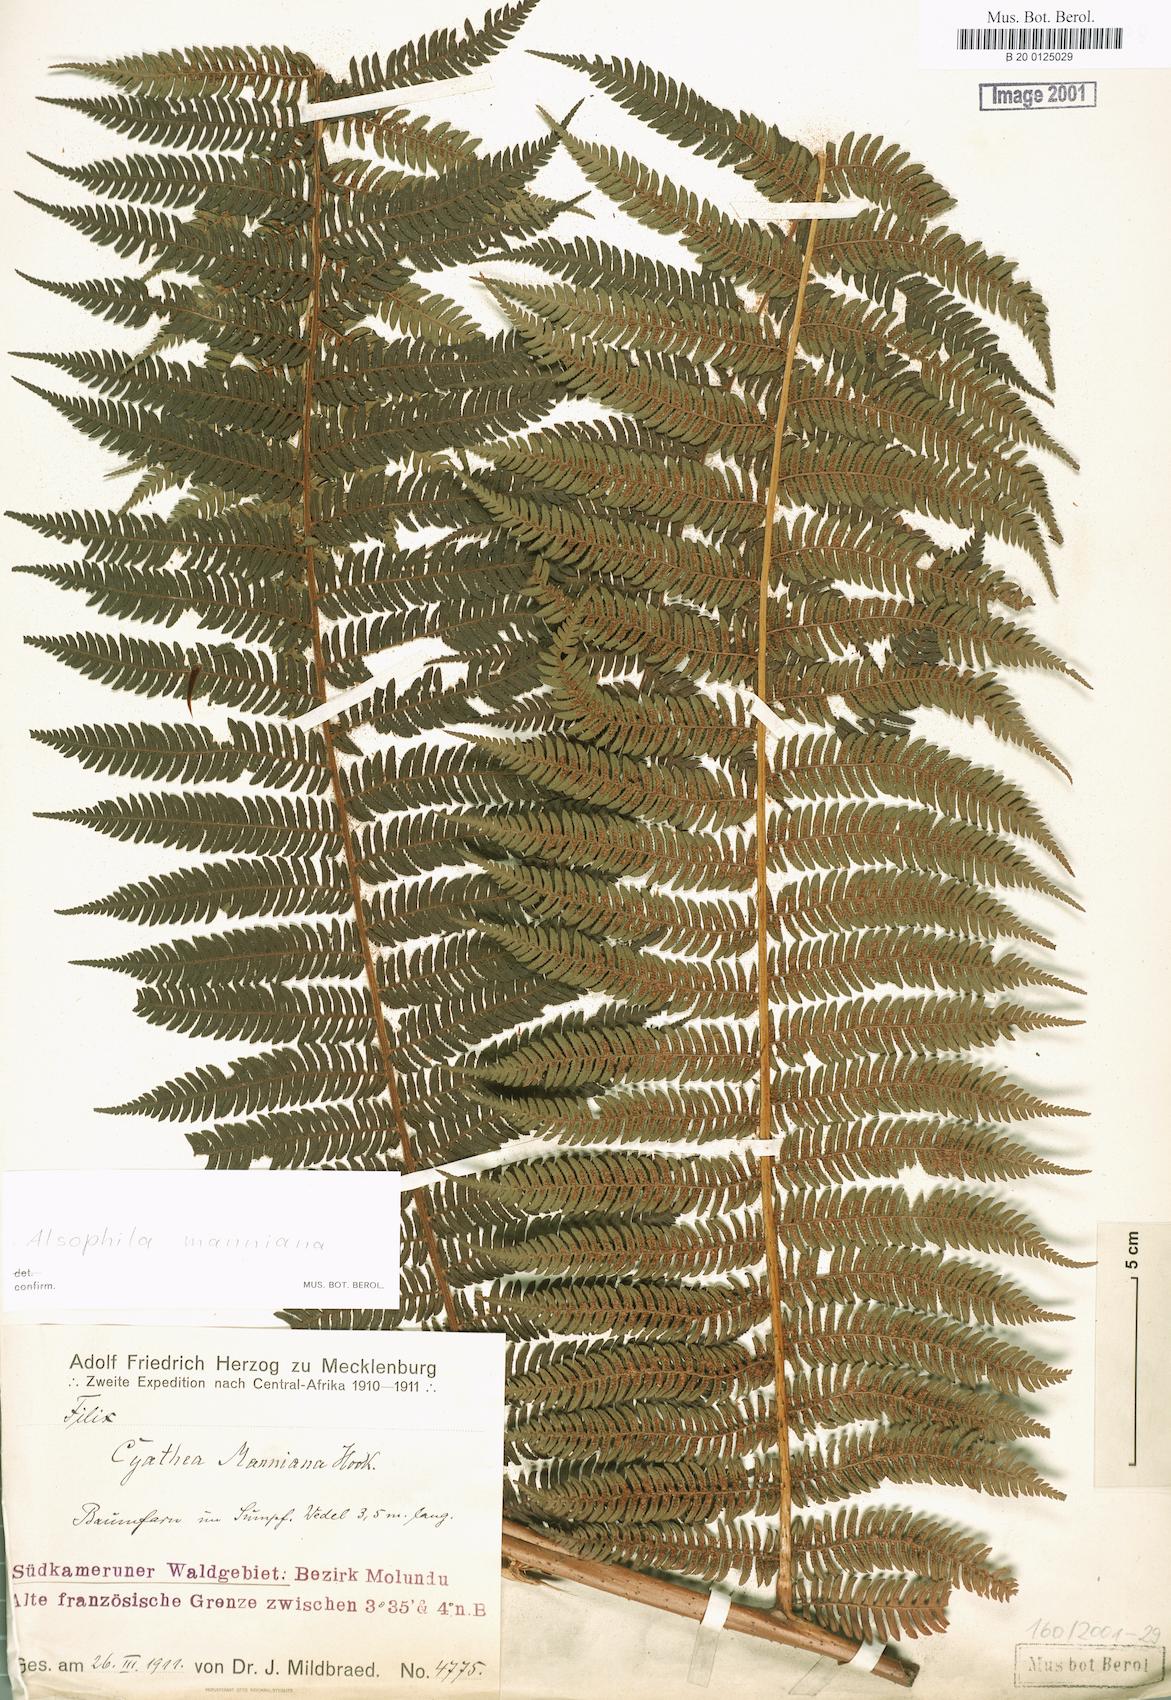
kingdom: Plantae
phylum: Tracheophyta
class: Polypodiopsida
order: Cyatheales
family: Cyatheaceae
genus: Alsophila
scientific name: Alsophila manniana
